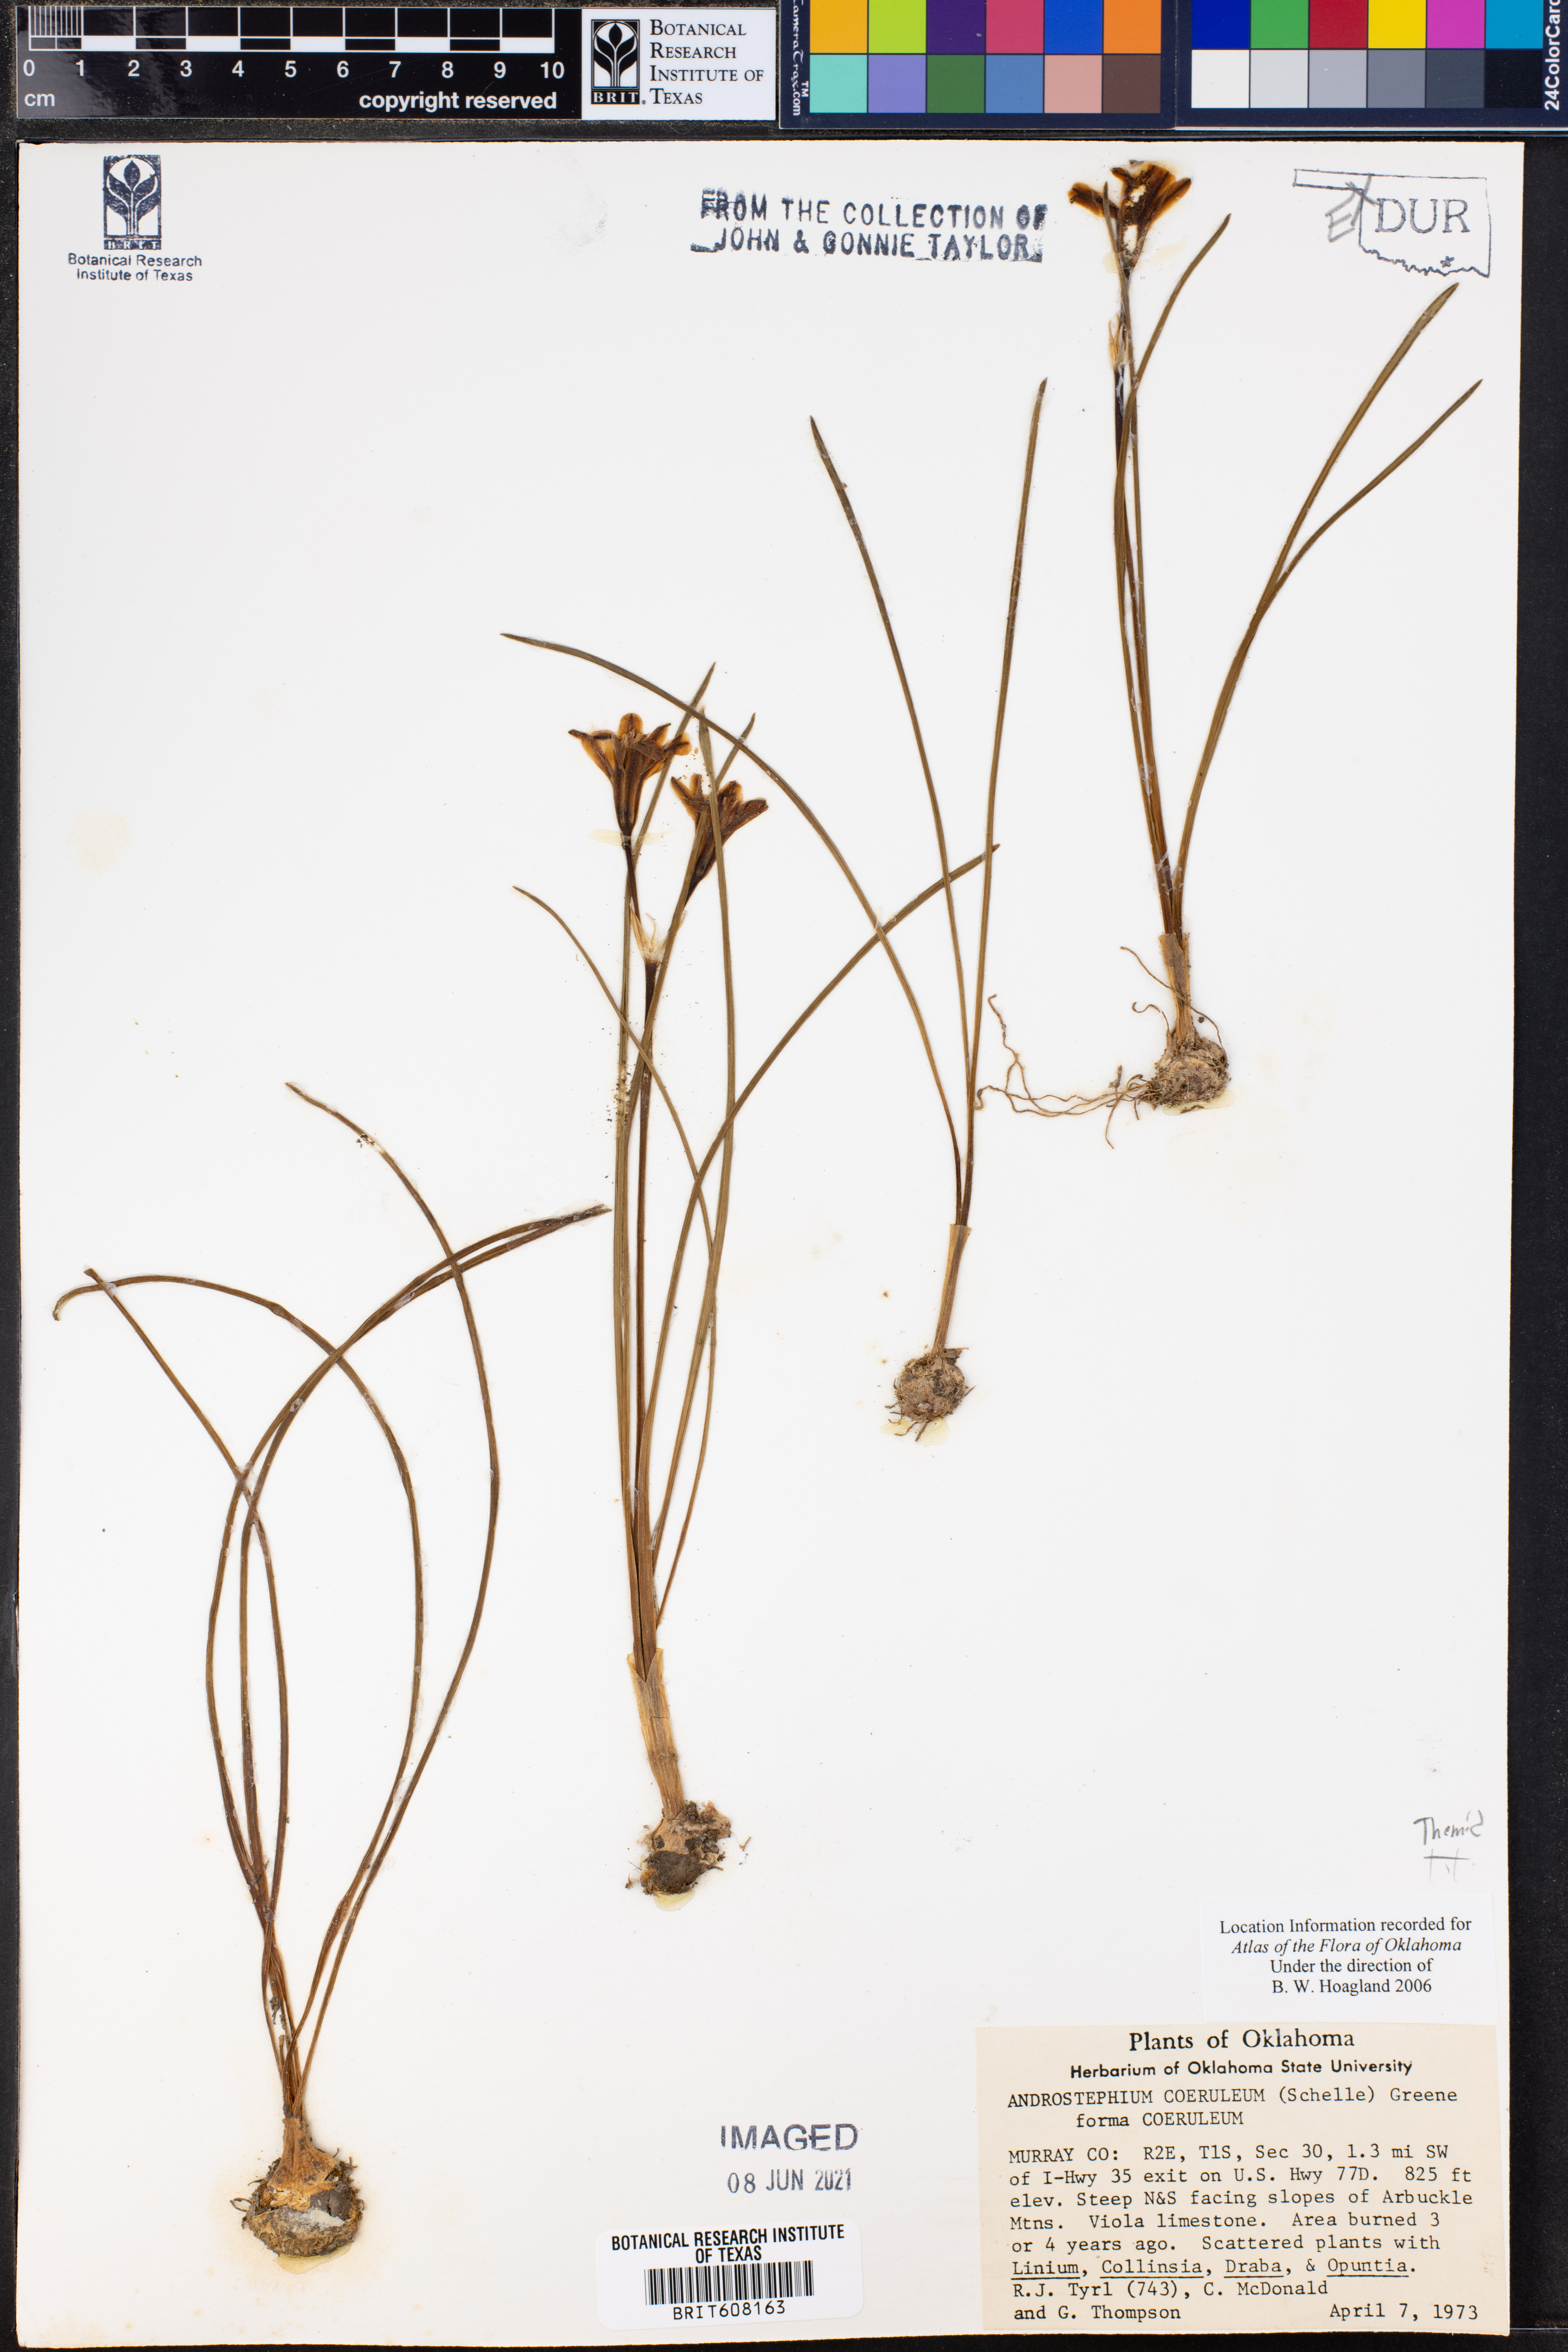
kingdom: Plantae
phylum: Tracheophyta
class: Liliopsida
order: Asparagales
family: Asparagaceae
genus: Androstephium
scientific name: Androstephium coeruleum
